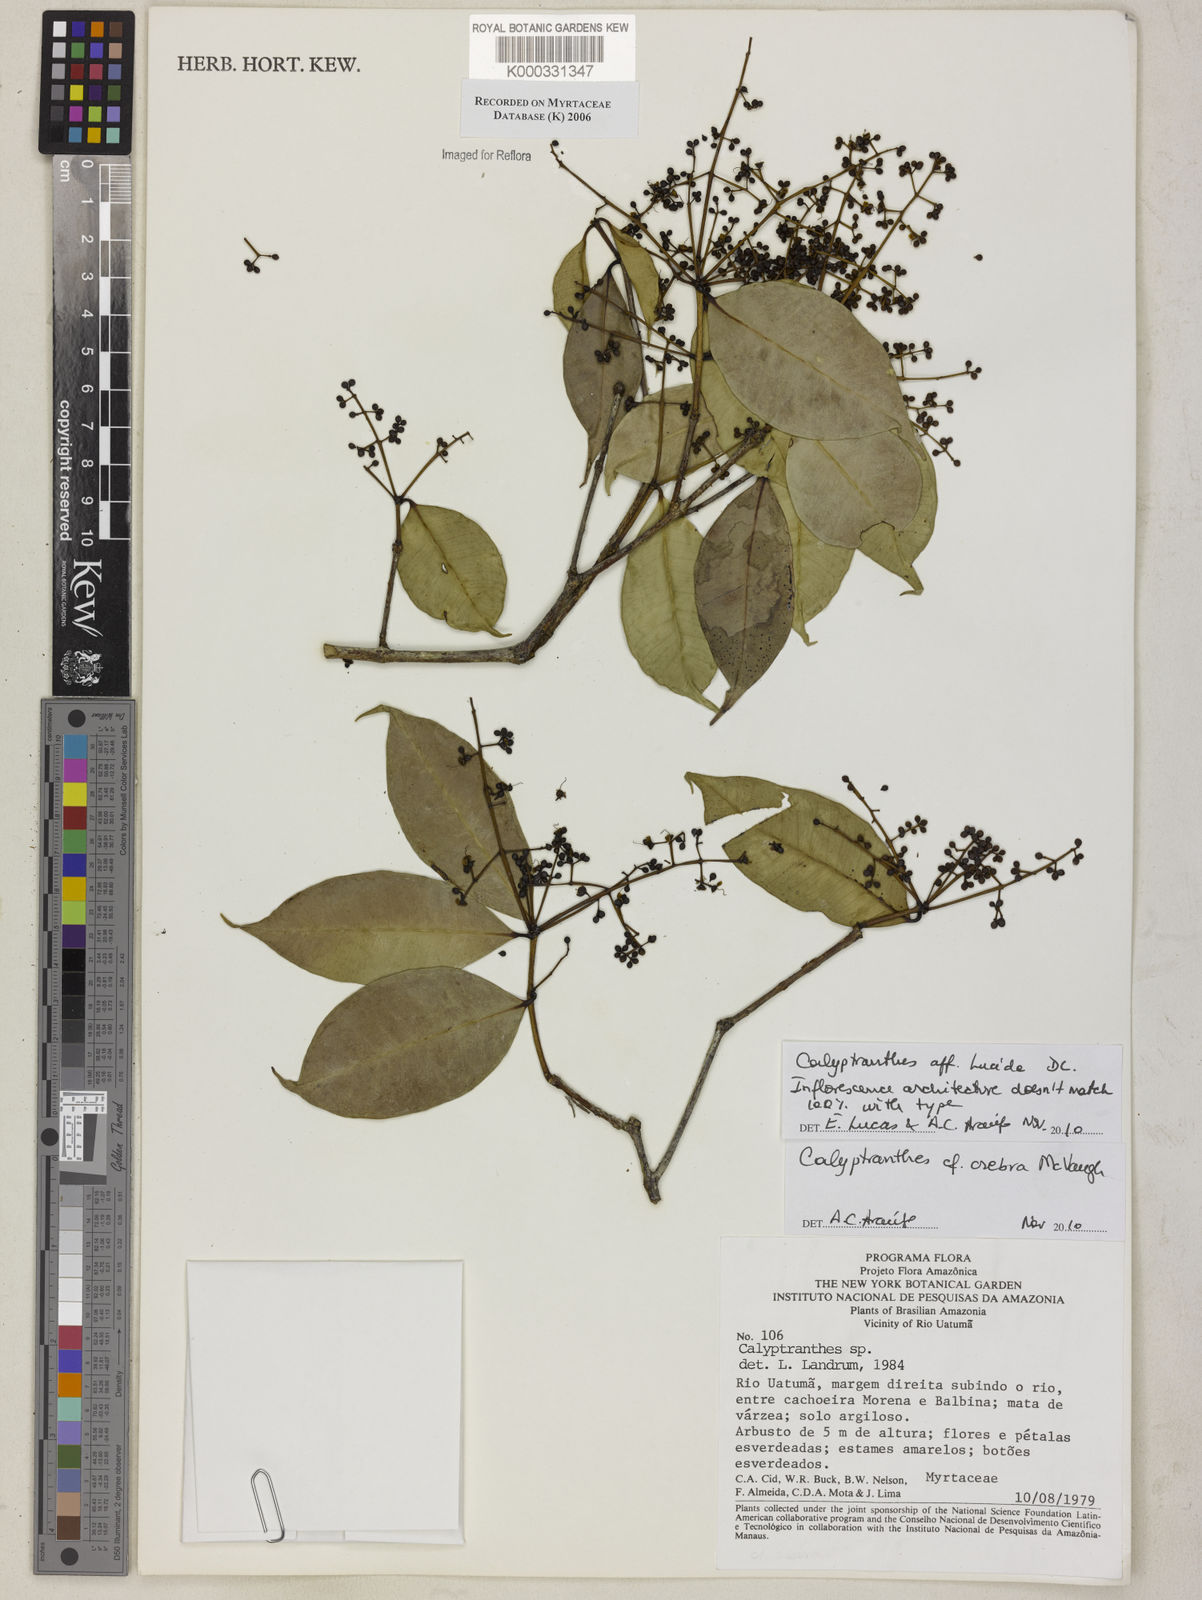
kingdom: Plantae
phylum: Tracheophyta
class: Magnoliopsida
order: Myrtales
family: Myrtaceae
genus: Calyptranthes
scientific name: Calyptranthes
